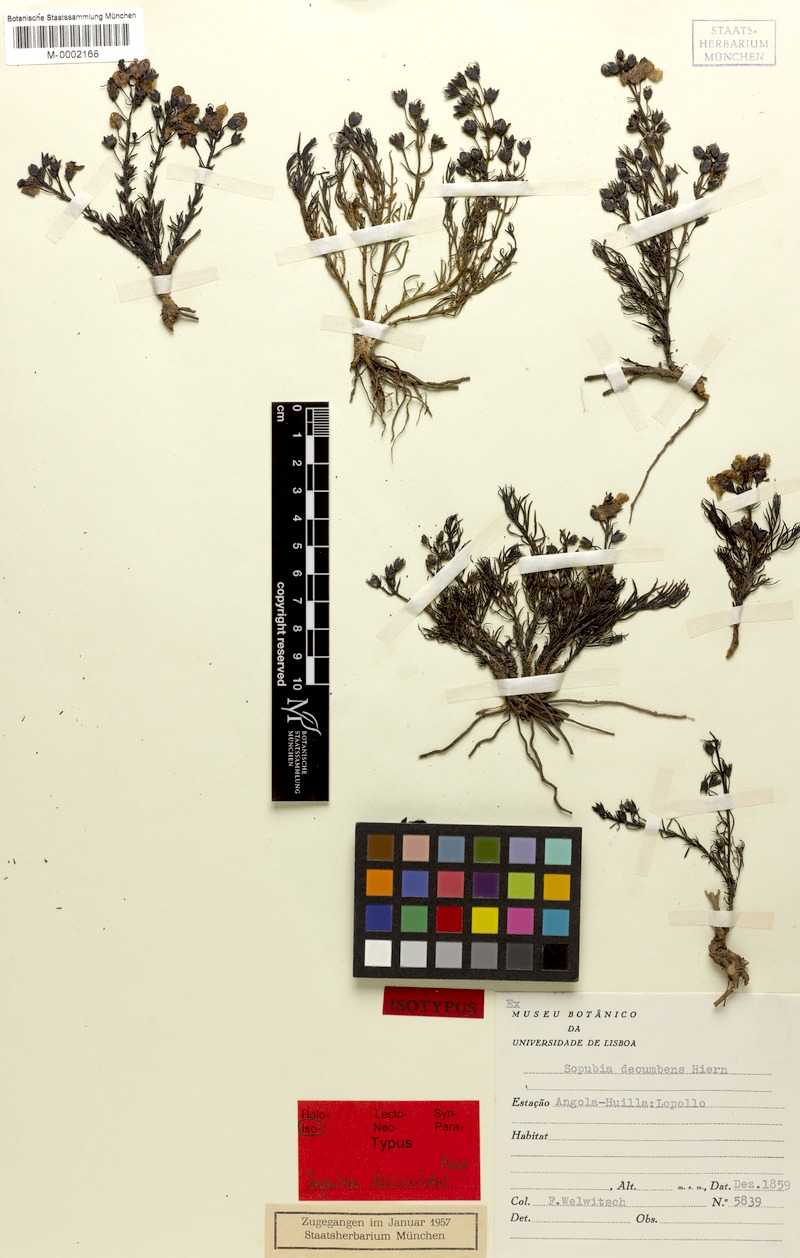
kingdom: Plantae
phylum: Tracheophyta
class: Magnoliopsida
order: Lamiales
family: Orobanchaceae
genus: Sopubia
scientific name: Sopubia decumbens
